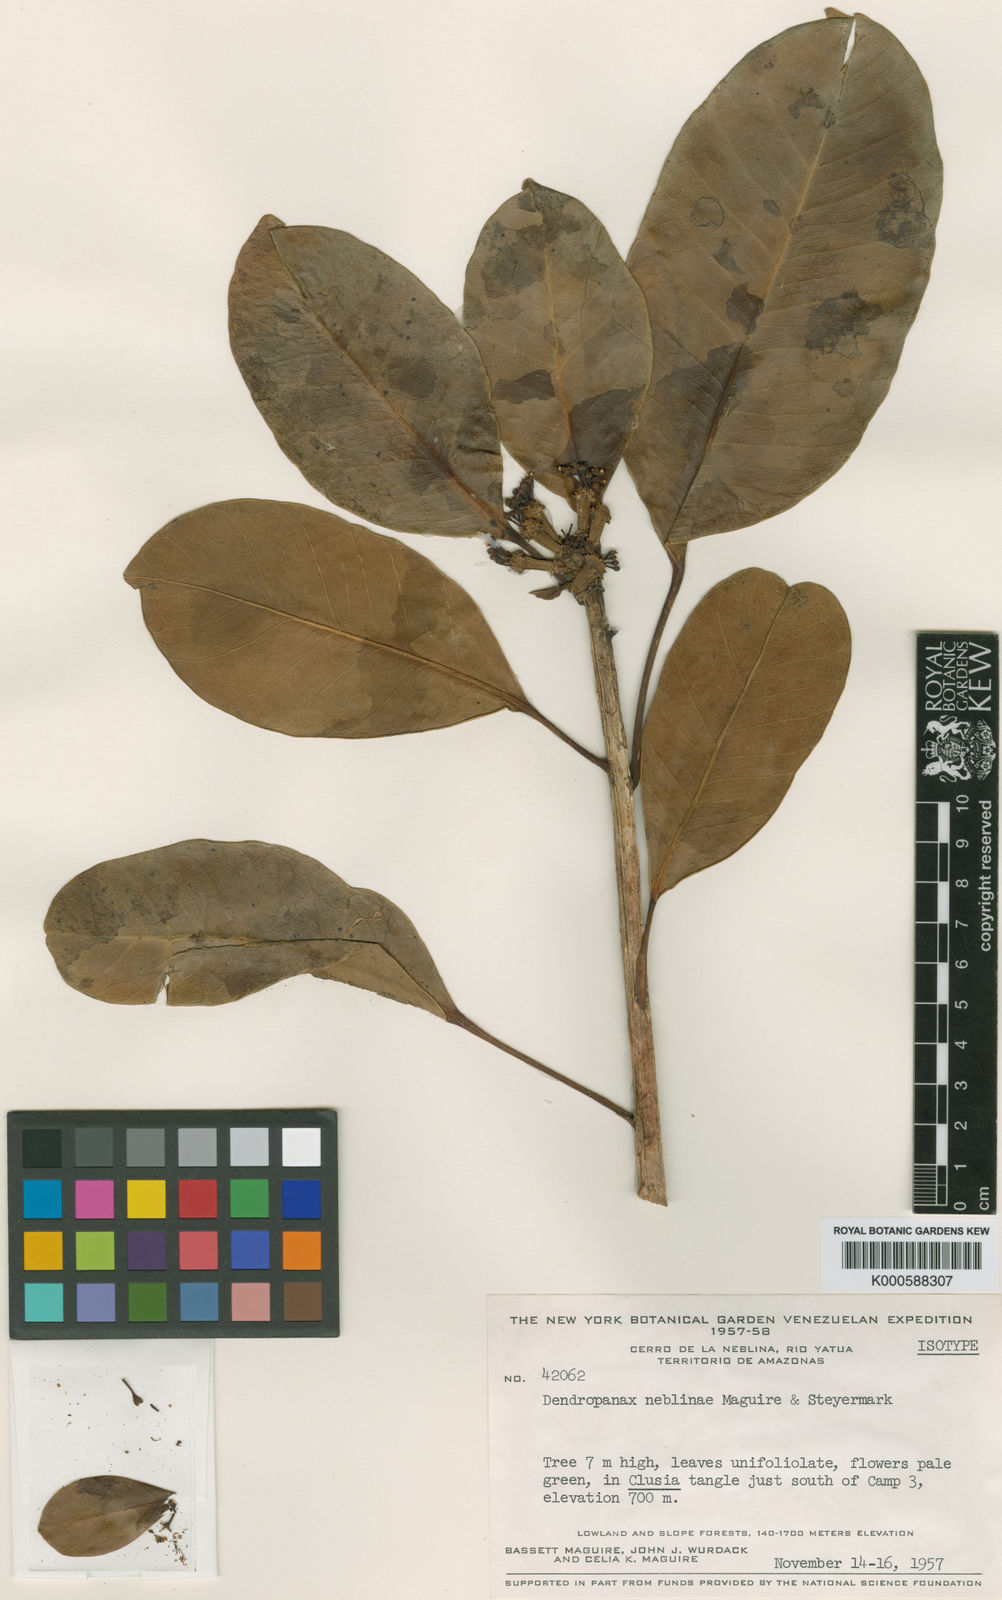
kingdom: Plantae
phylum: Tracheophyta
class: Magnoliopsida
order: Apiales
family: Araliaceae
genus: Dendropanax
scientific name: Dendropanax neblinae
